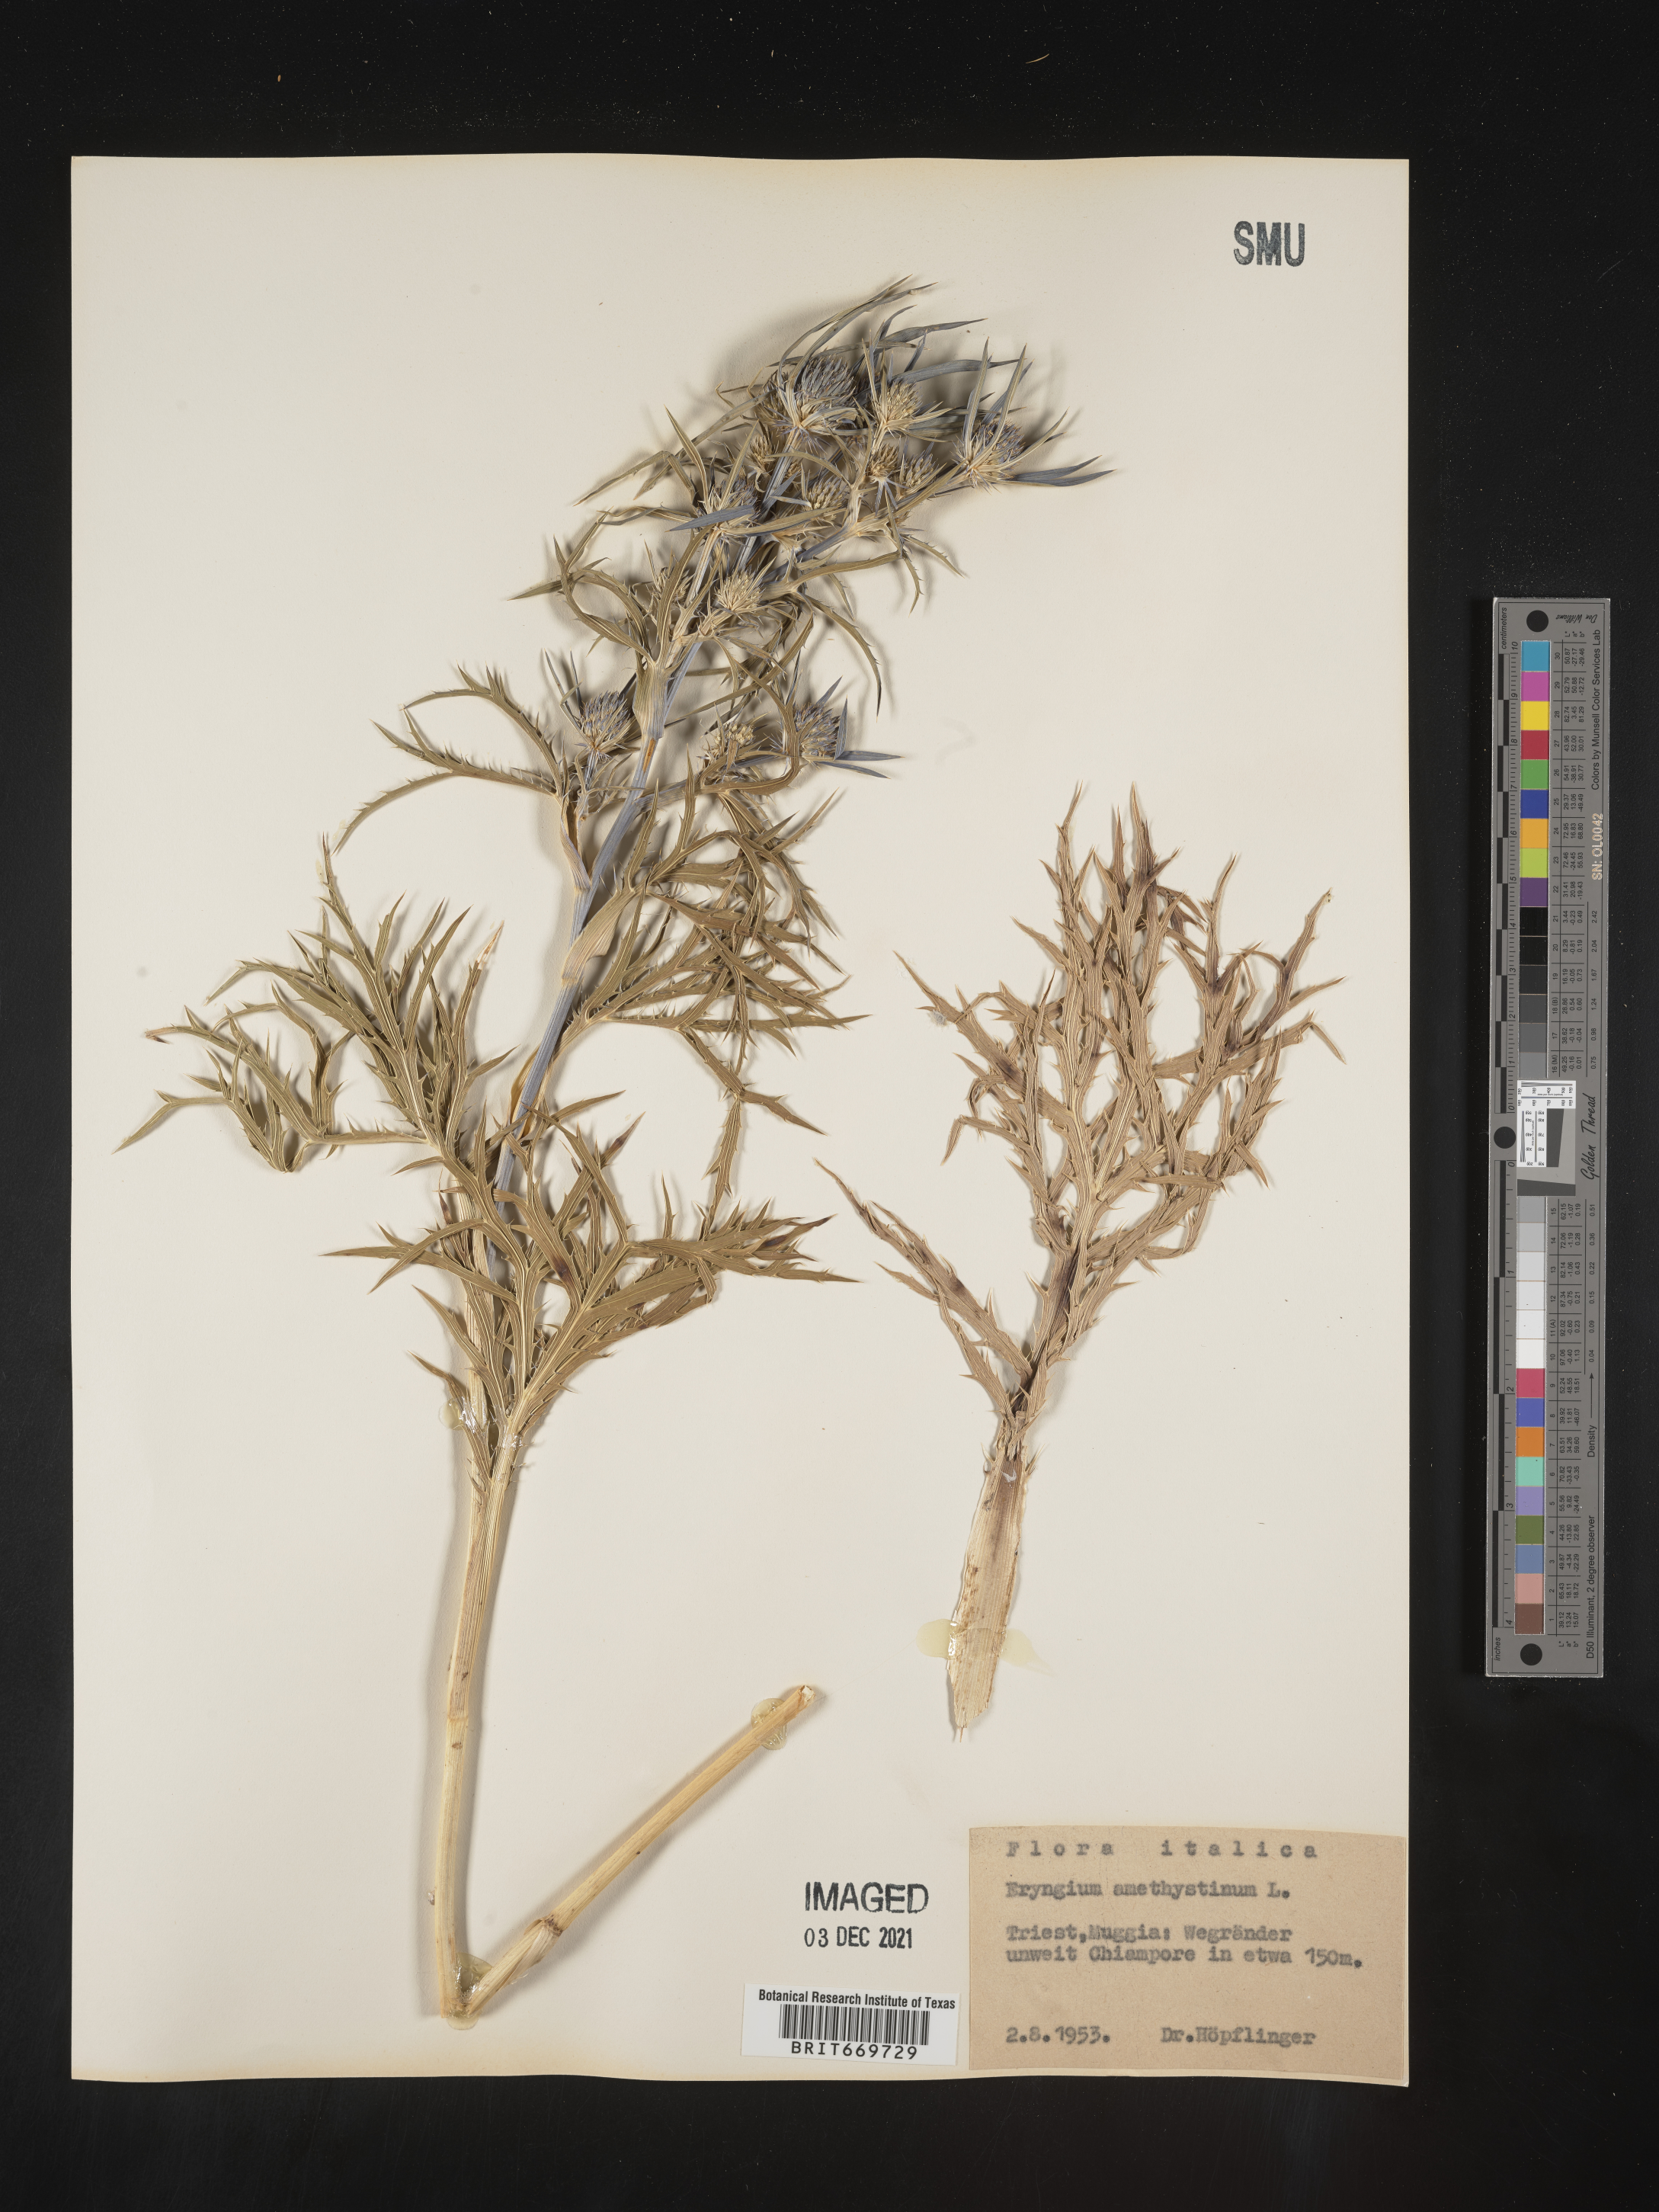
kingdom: Plantae
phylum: Tracheophyta
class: Magnoliopsida
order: Apiales
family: Apiaceae
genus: Eryngium
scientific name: Eryngium
